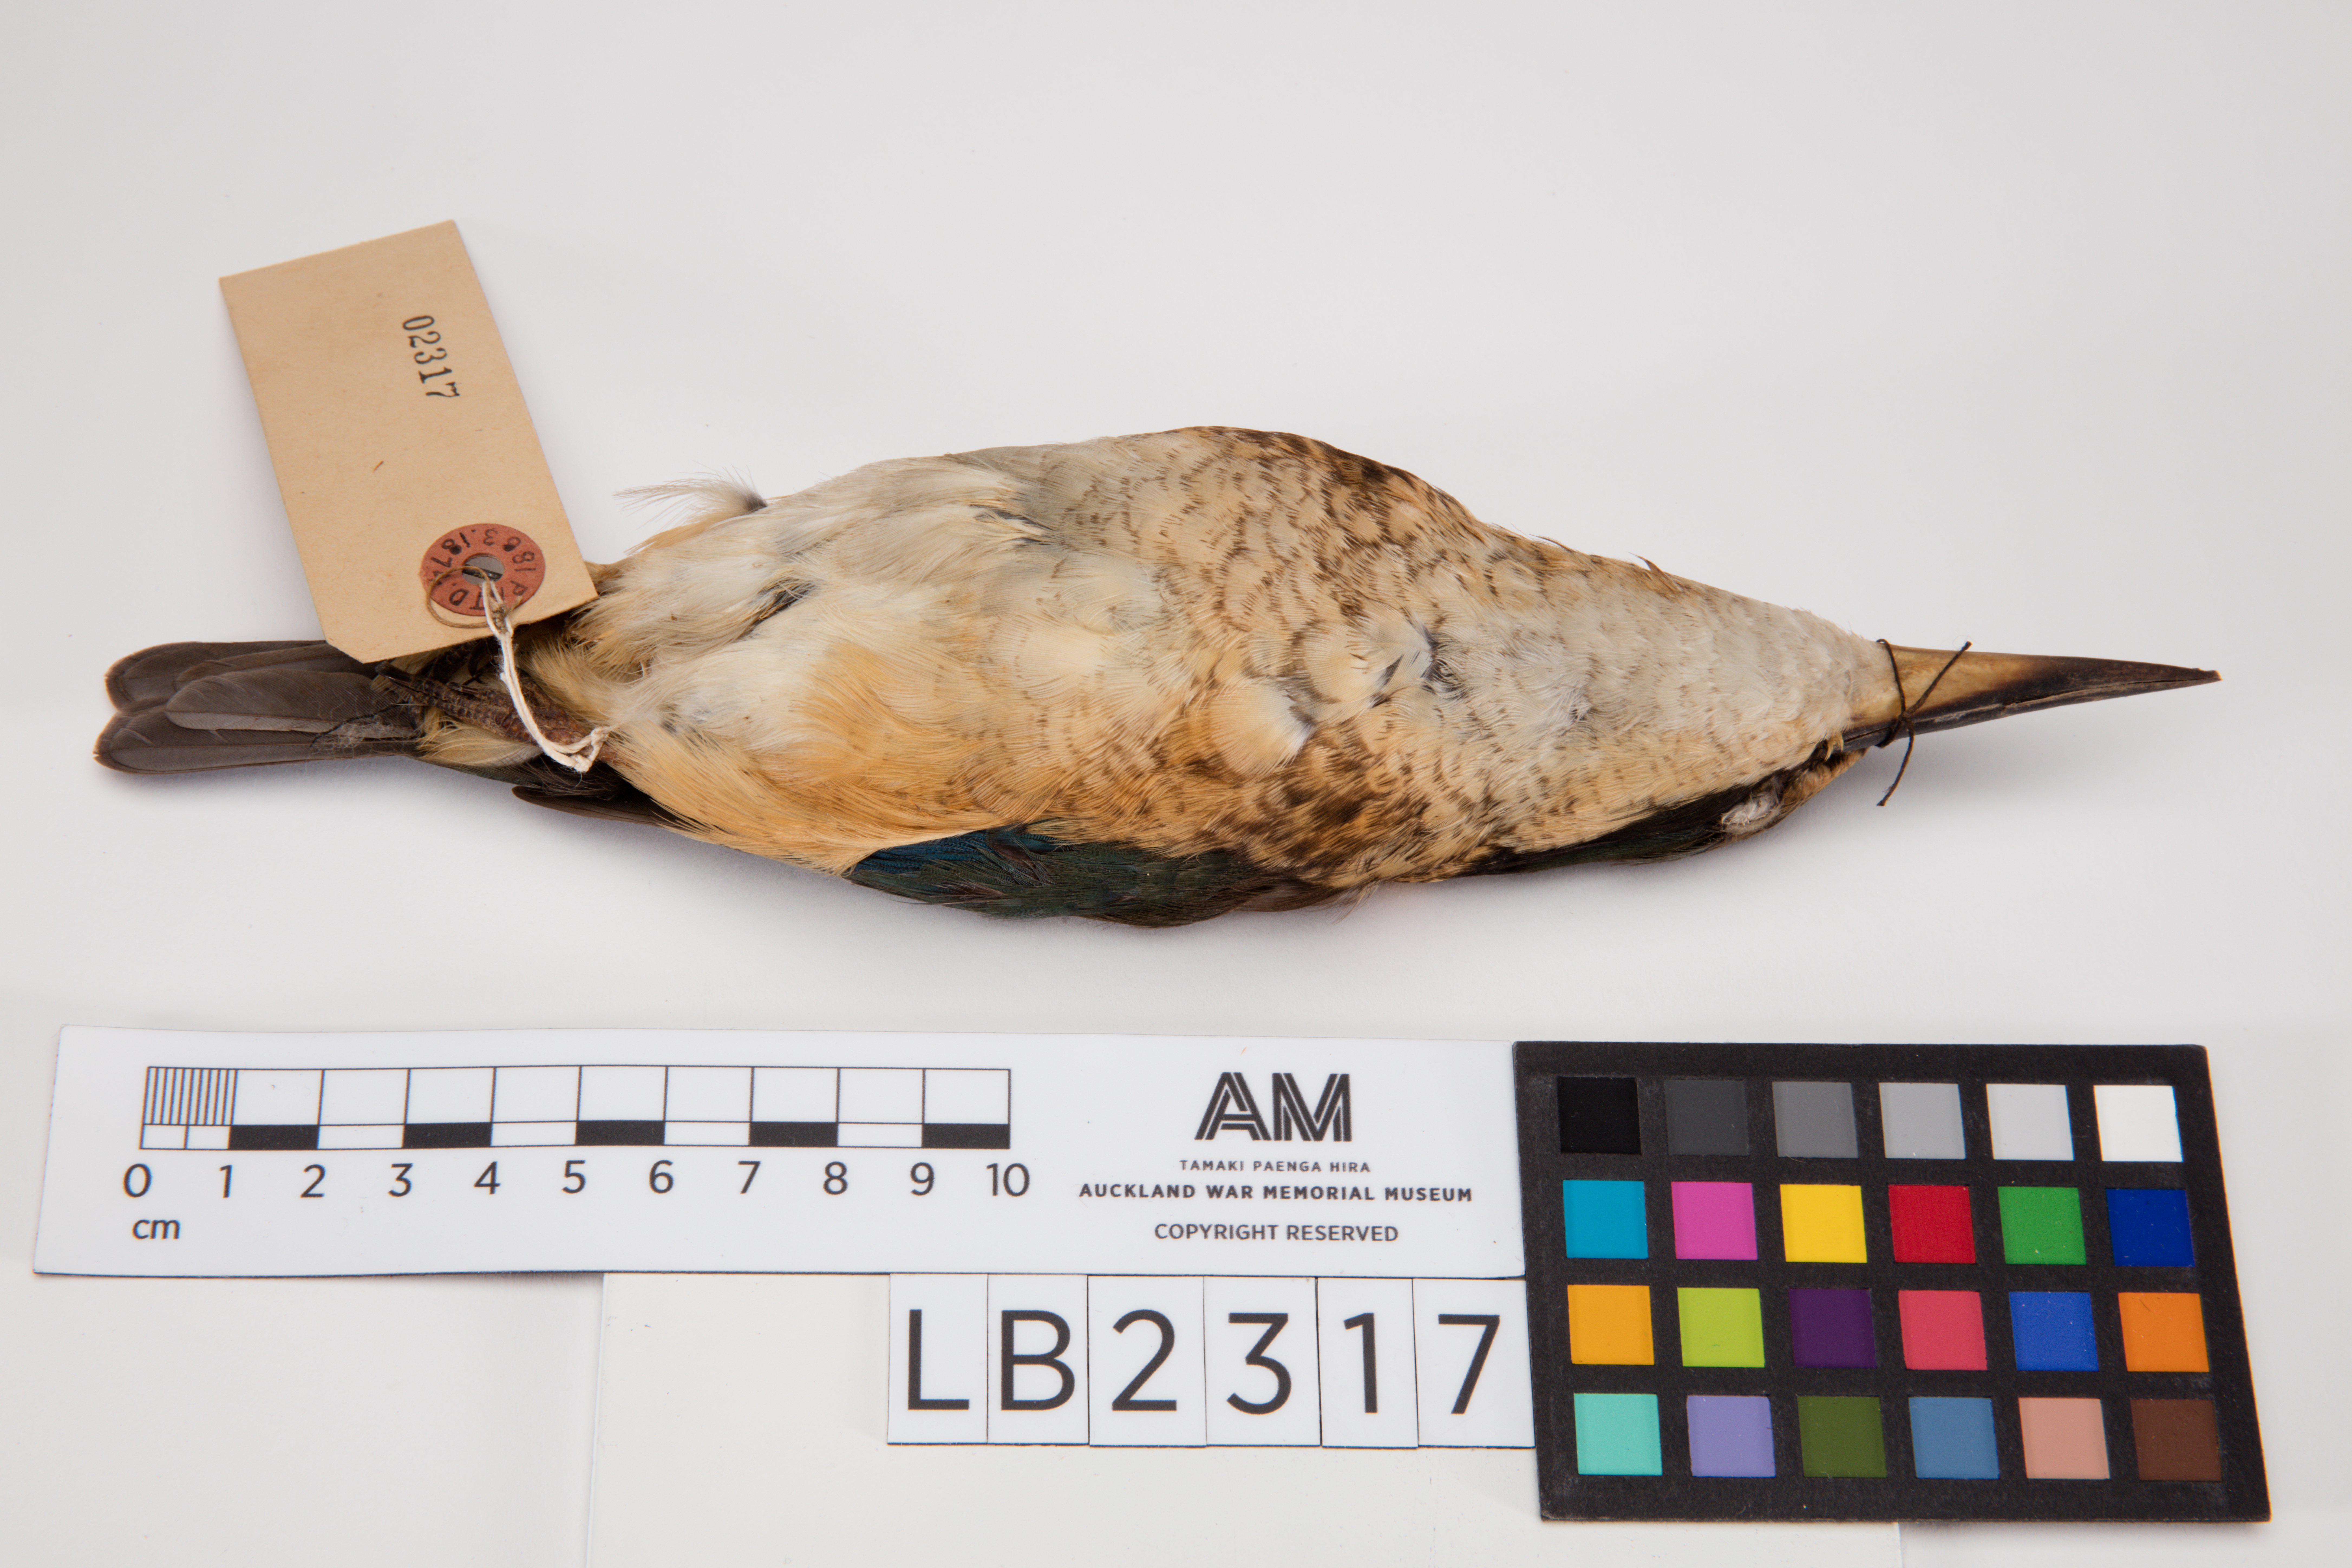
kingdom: Animalia
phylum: Chordata
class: Aves
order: Coraciiformes
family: Alcedinidae
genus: Todiramphus
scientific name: Todiramphus sanctus
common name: Sacred kingfisher
